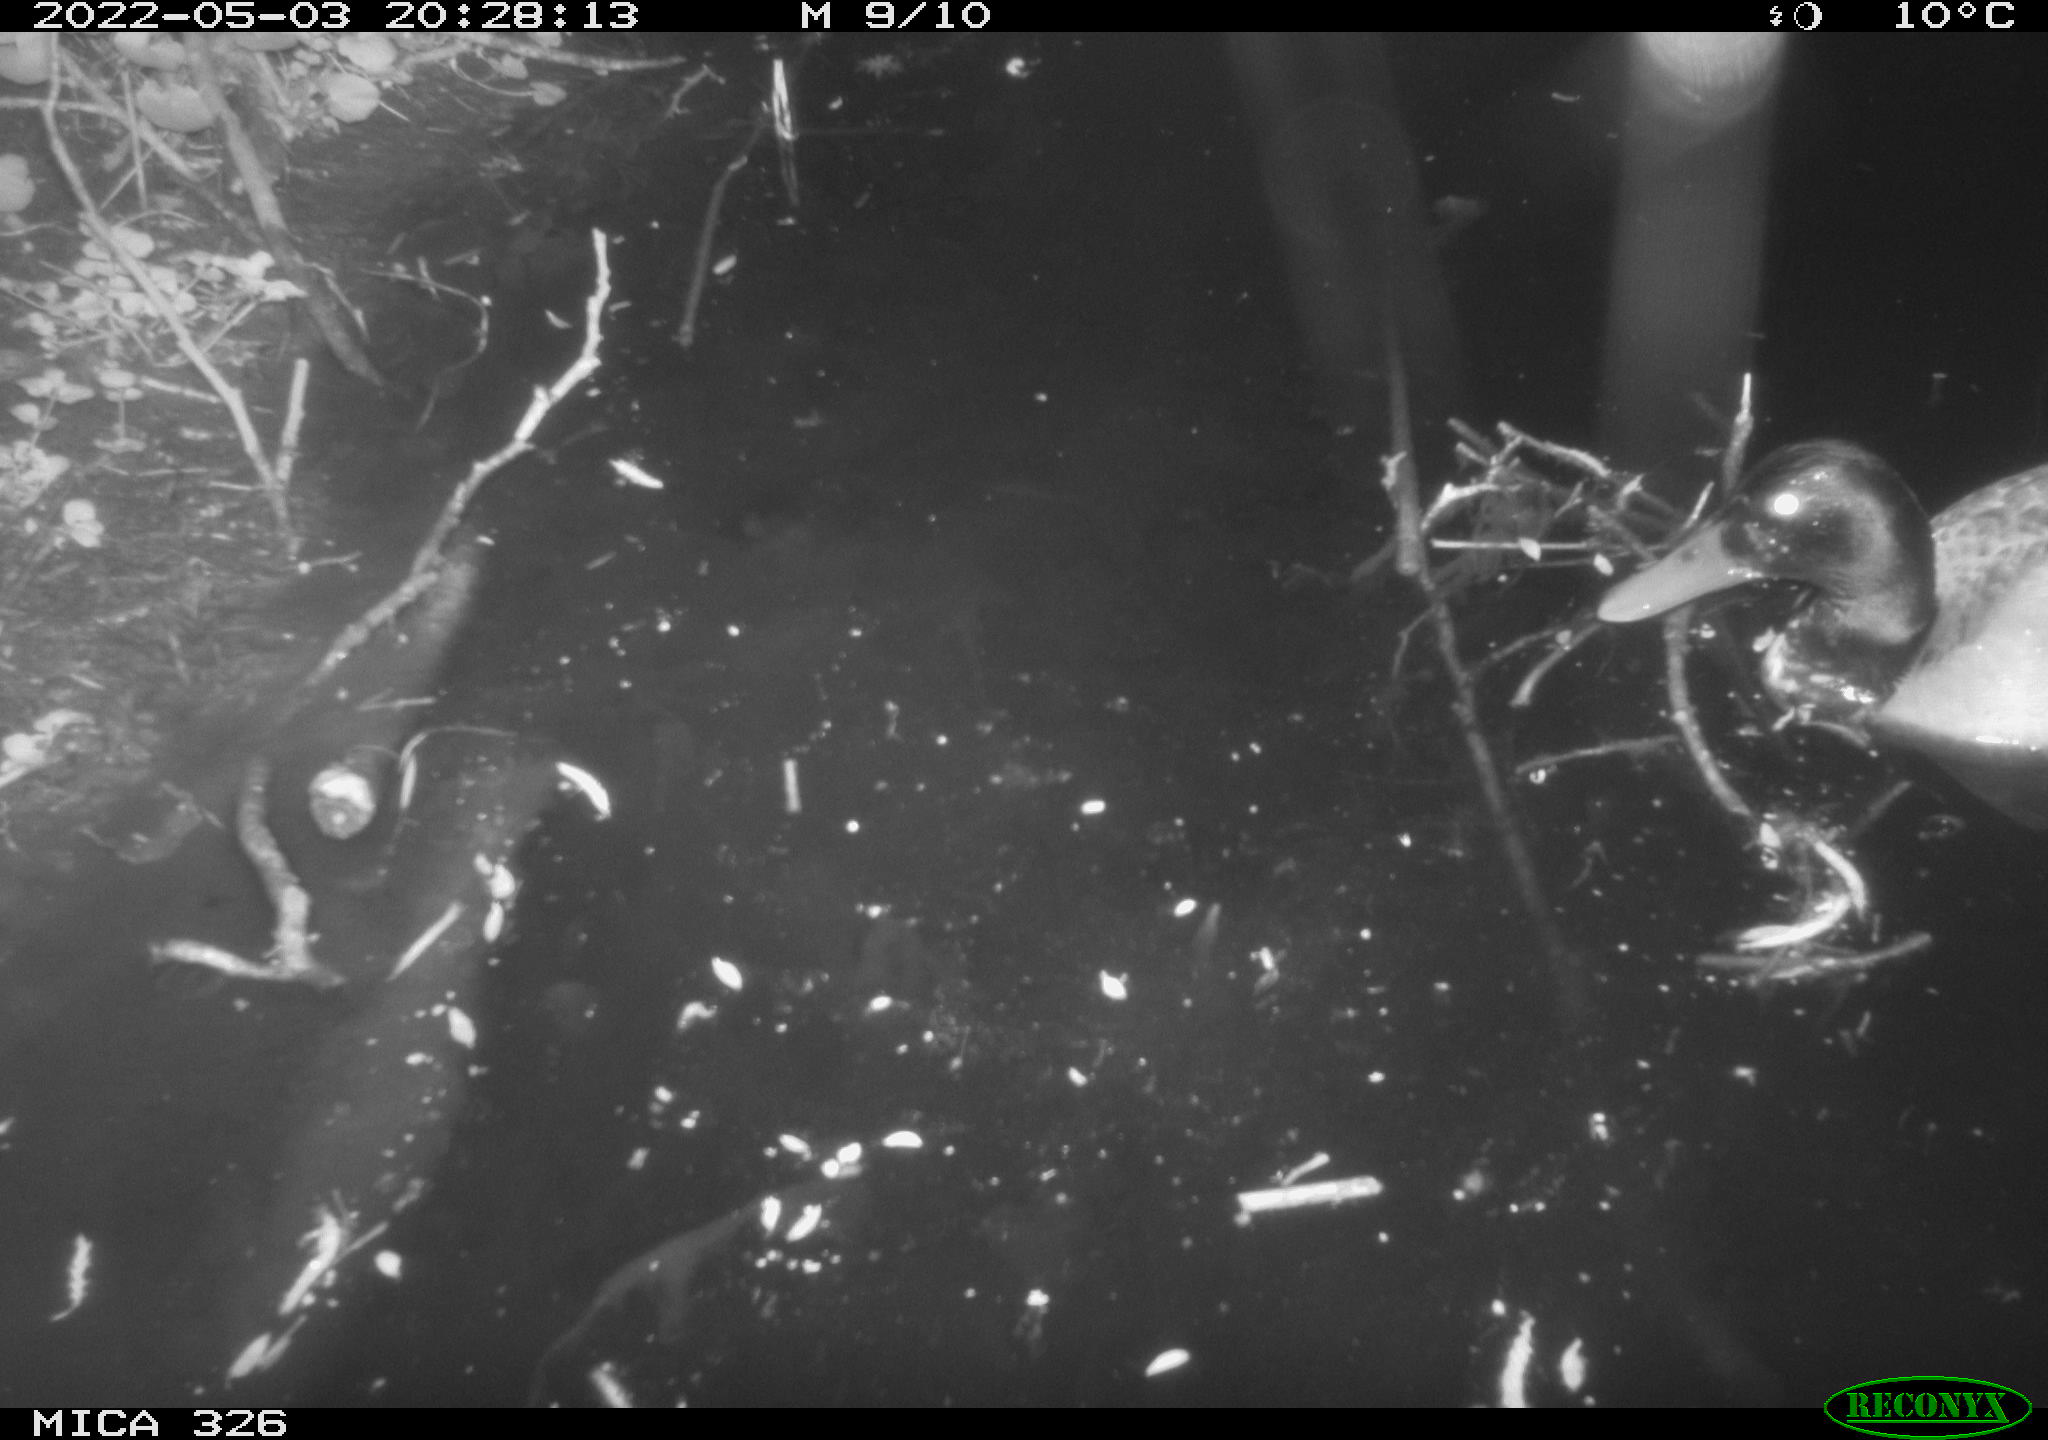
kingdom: Animalia
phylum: Chordata
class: Aves
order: Anseriformes
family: Anatidae
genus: Anas
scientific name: Anas platyrhynchos
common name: Mallard
